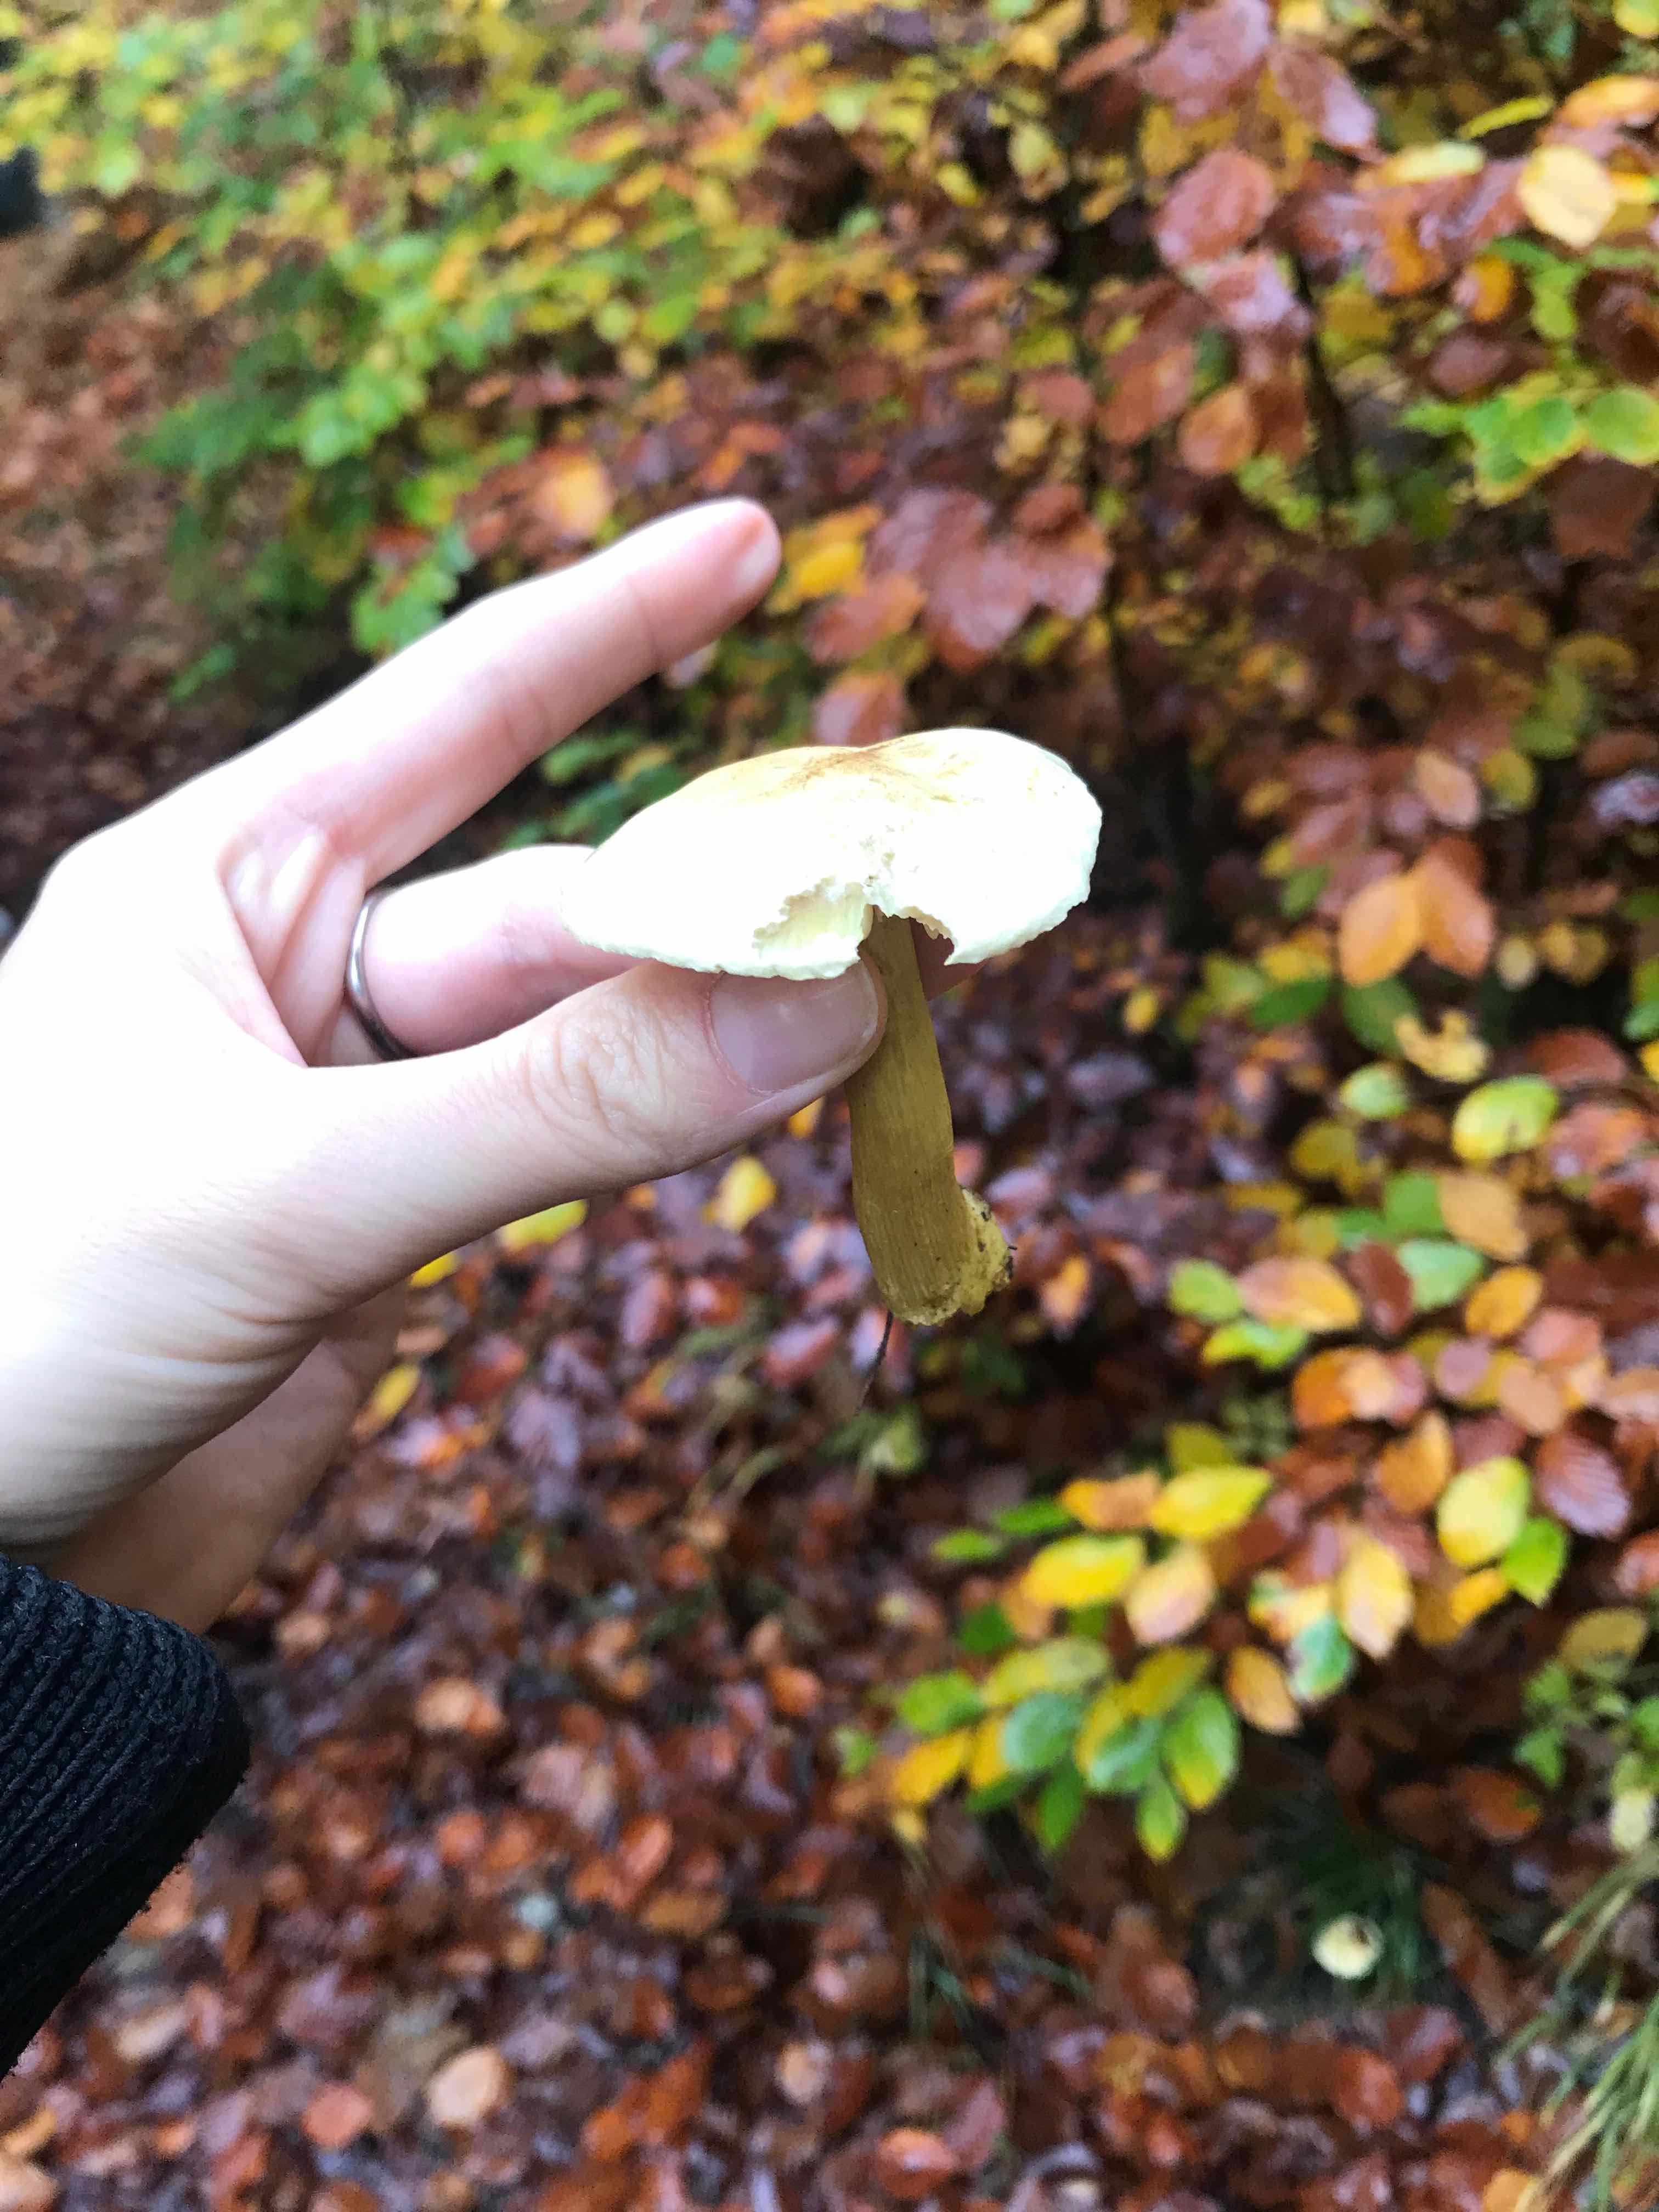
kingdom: Fungi
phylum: Basidiomycota
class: Agaricomycetes
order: Agaricales
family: Tricholomataceae
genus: Tricholoma
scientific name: Tricholoma sulphureum
